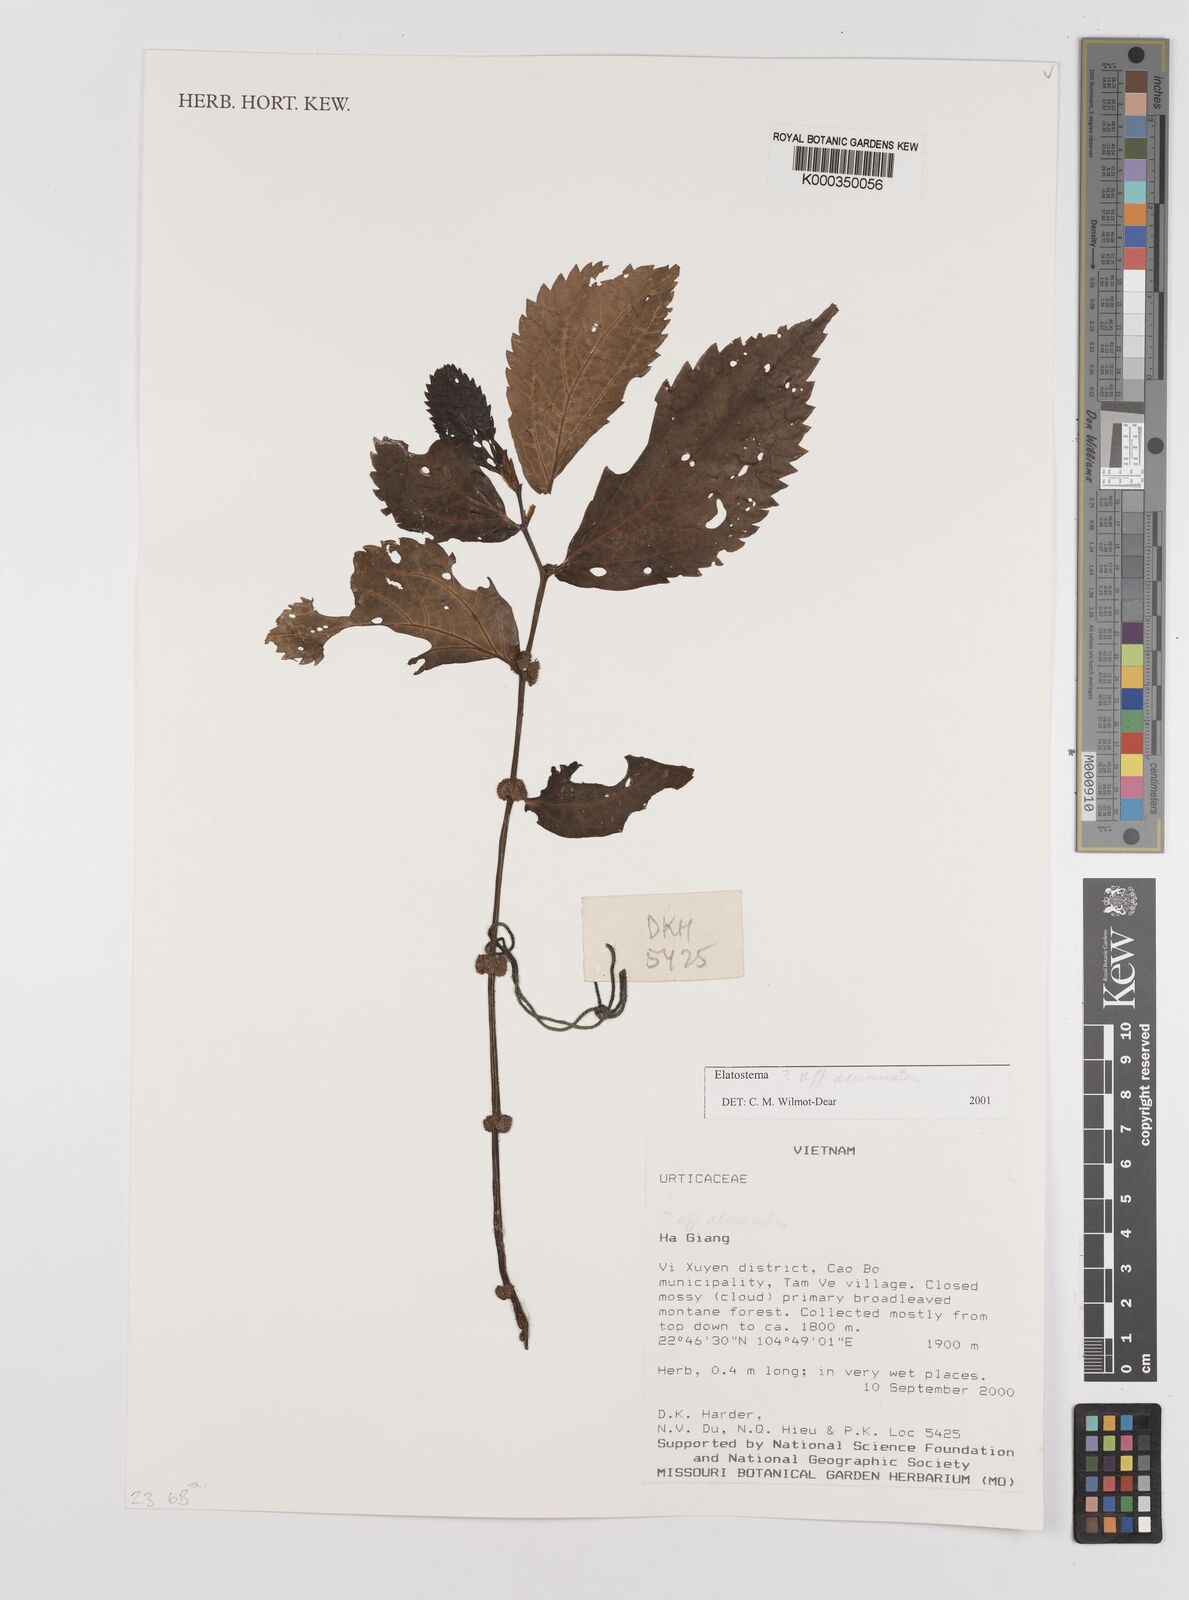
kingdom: Plantae
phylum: Tracheophyta
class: Magnoliopsida
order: Rosales
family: Urticaceae
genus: Elatostema
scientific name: Elatostema acuminatum
